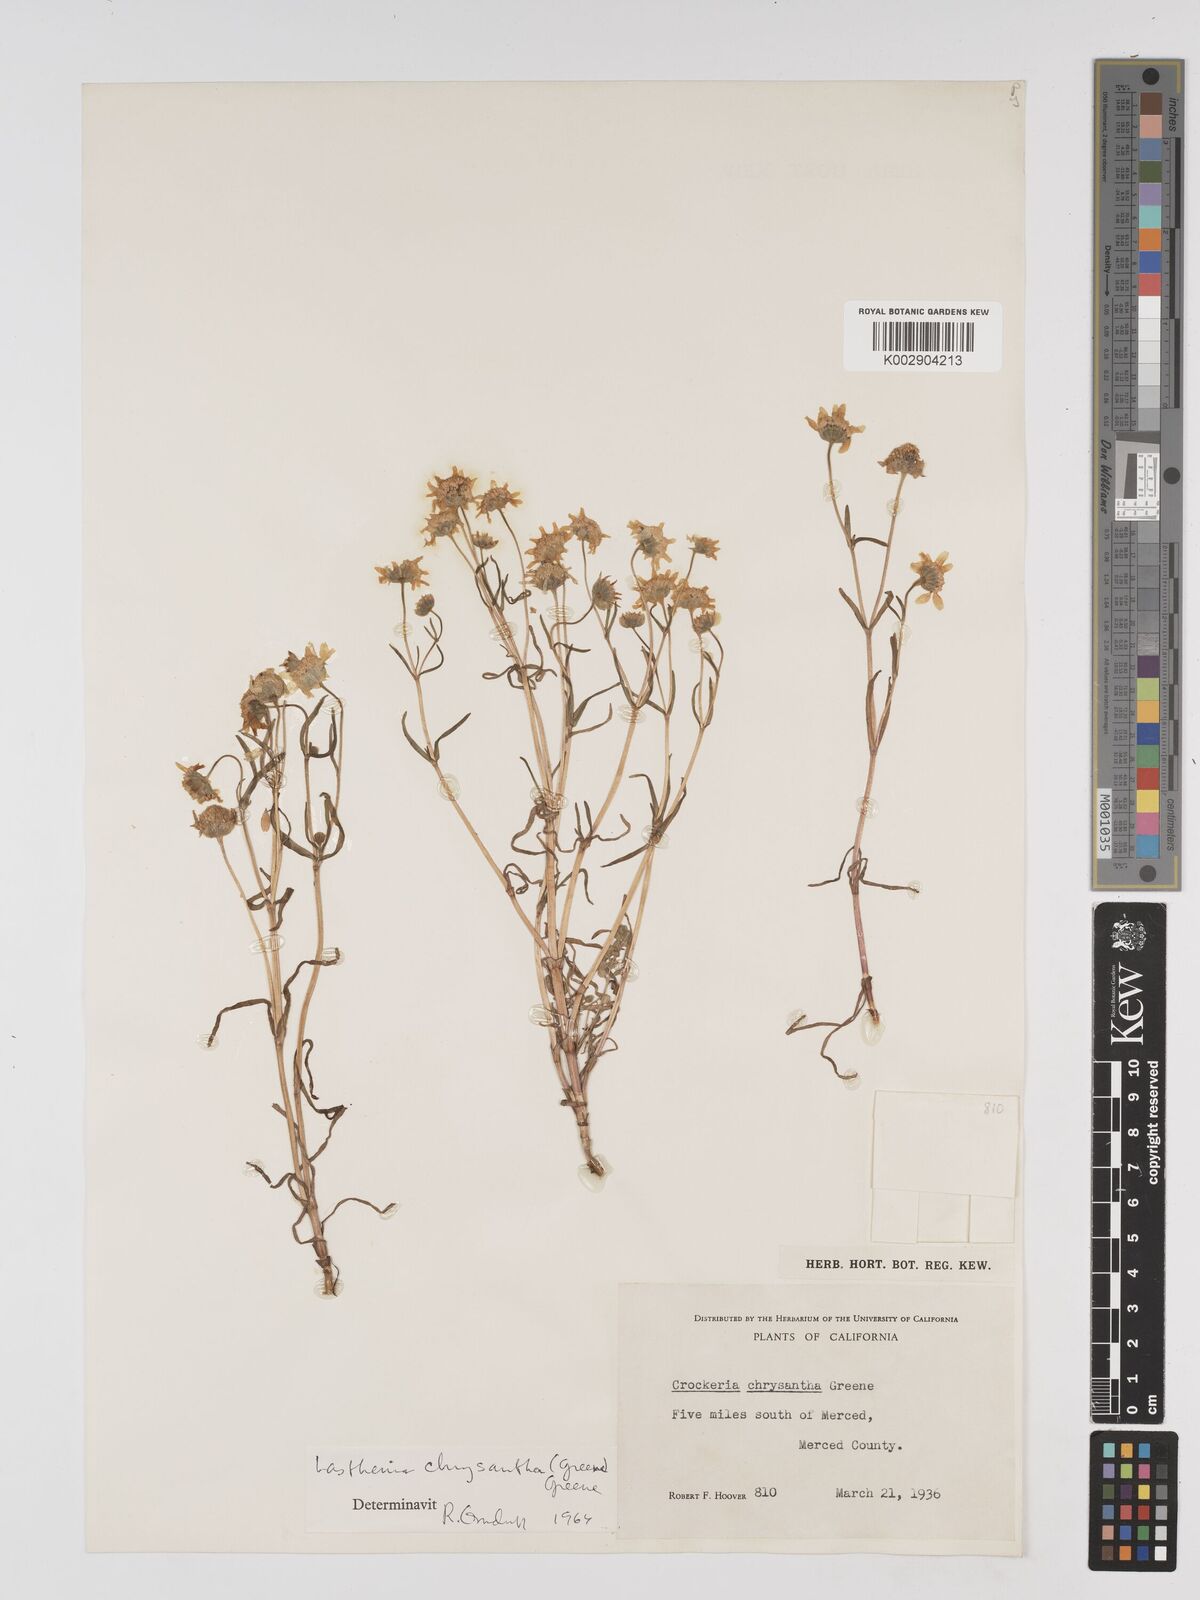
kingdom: Plantae
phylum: Tracheophyta
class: Magnoliopsida
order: Asterales
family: Asteraceae
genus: Lasthenia
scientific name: Lasthenia chrysantha
